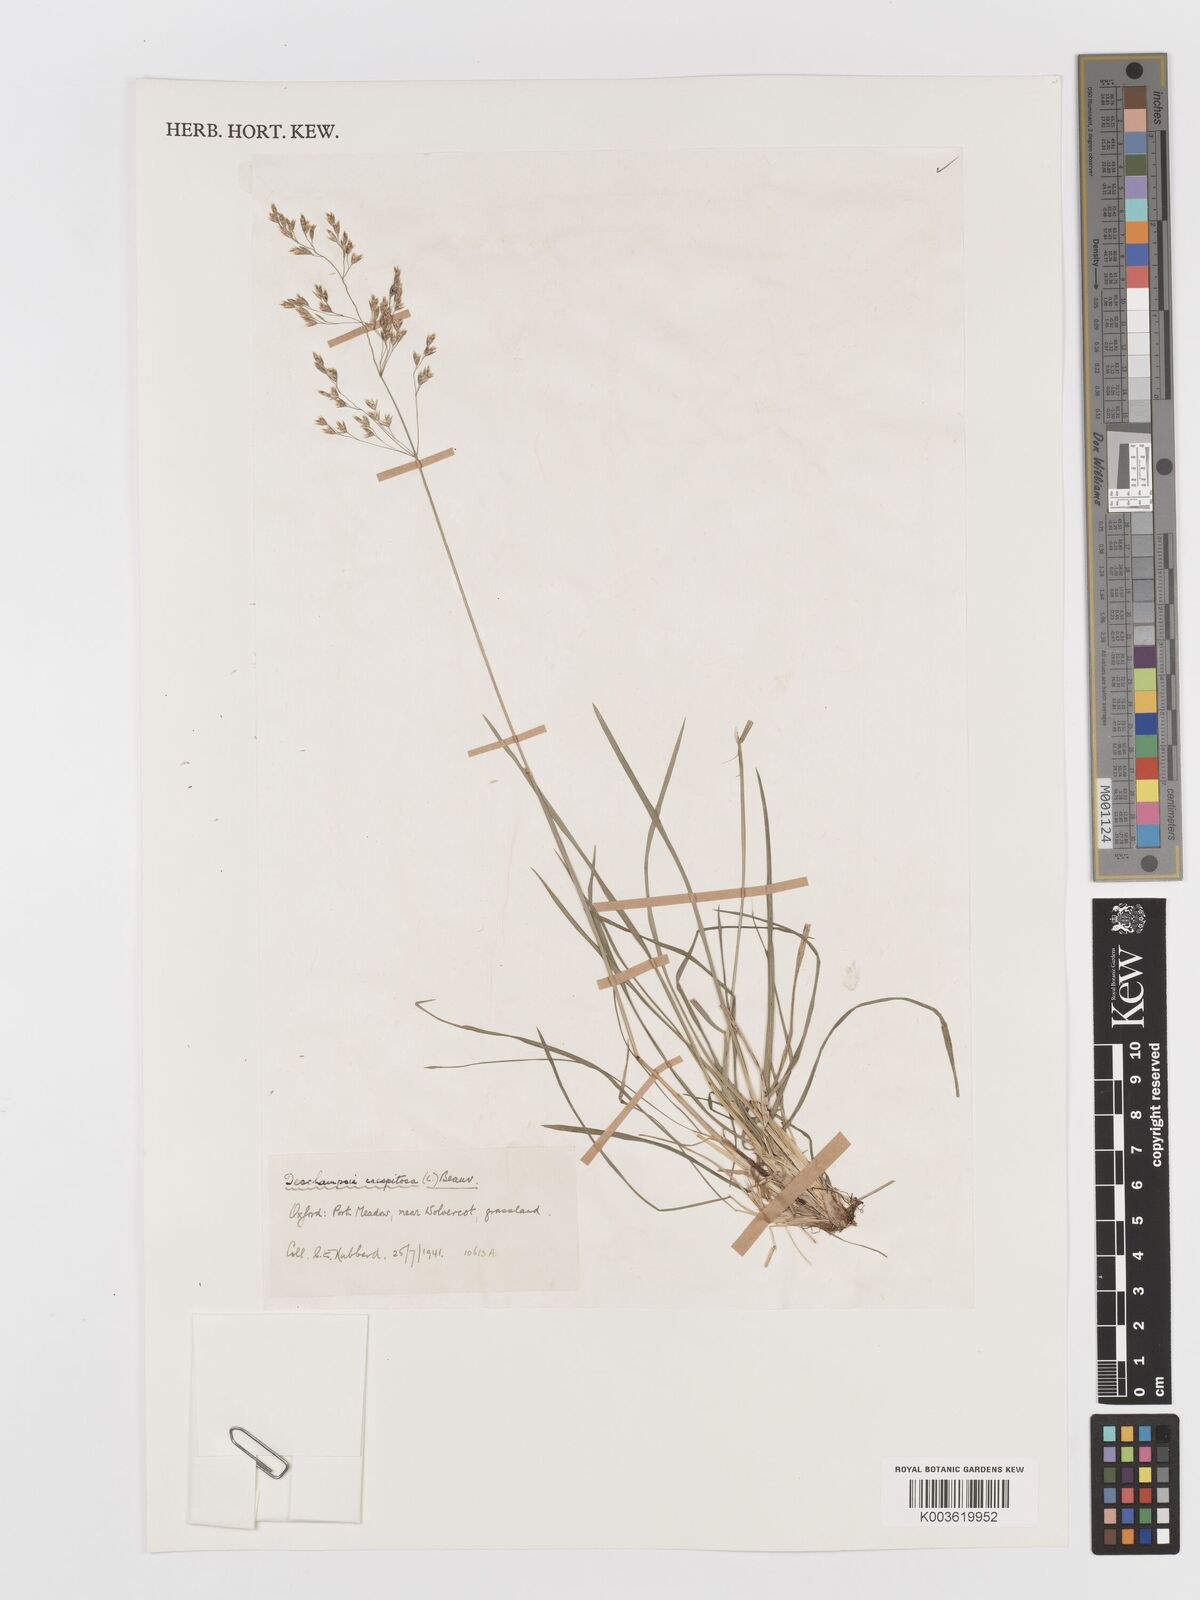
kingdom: Plantae
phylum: Tracheophyta
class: Liliopsida
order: Poales
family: Poaceae
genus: Deschampsia
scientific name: Deschampsia
